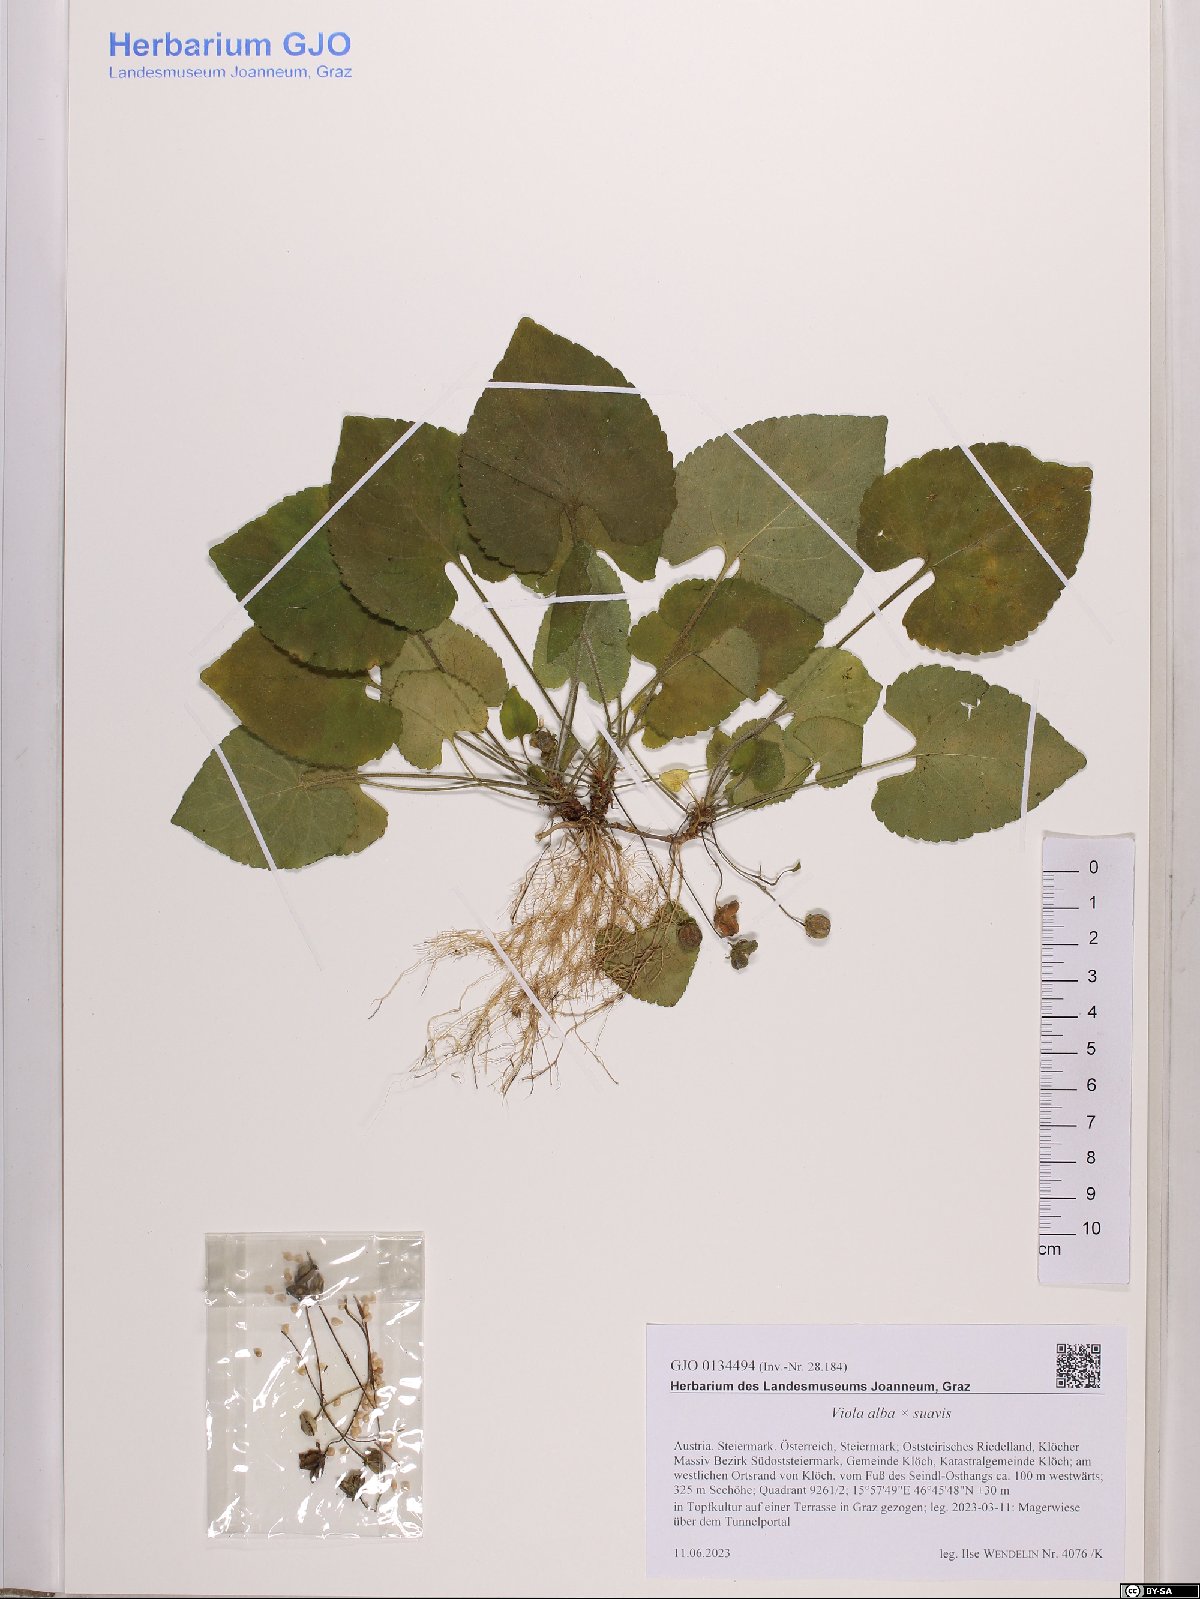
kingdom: Plantae
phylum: Tracheophyta
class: Magnoliopsida
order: Malpighiales
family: Violaceae
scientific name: Violaceae
